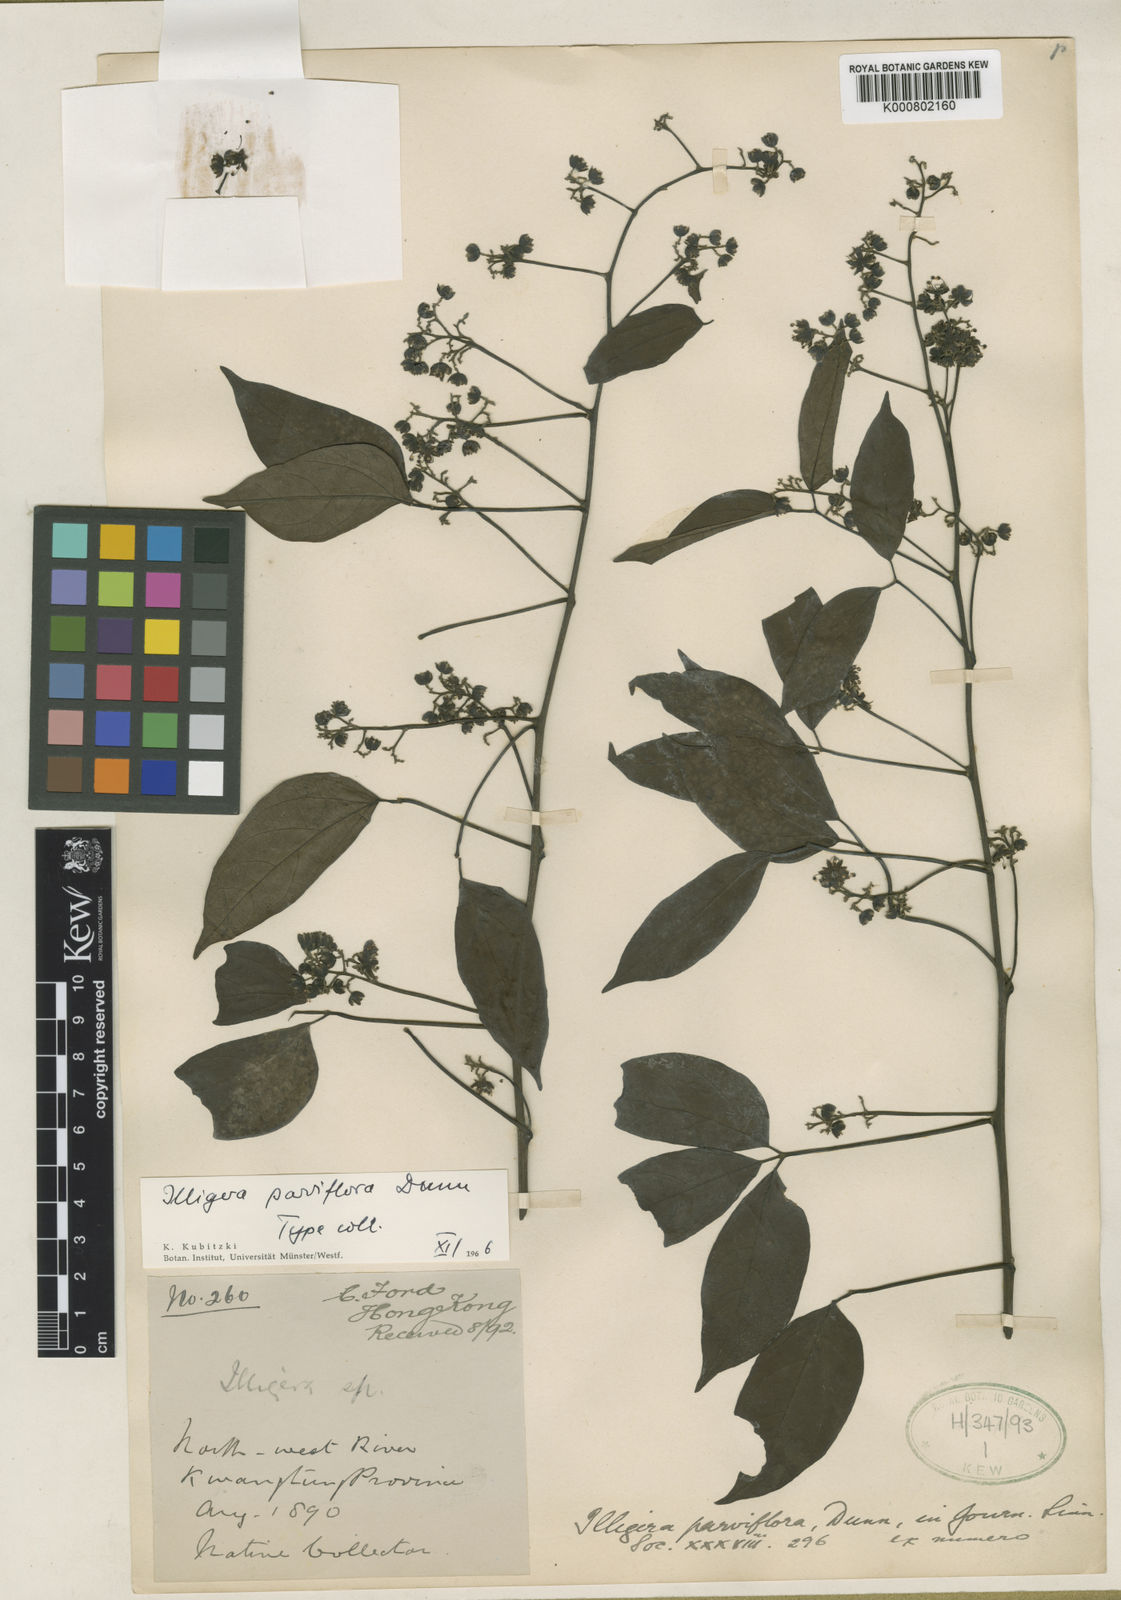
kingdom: Plantae
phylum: Tracheophyta
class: Magnoliopsida
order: Laurales
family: Hernandiaceae
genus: Illigera
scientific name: Illigera parviflora
